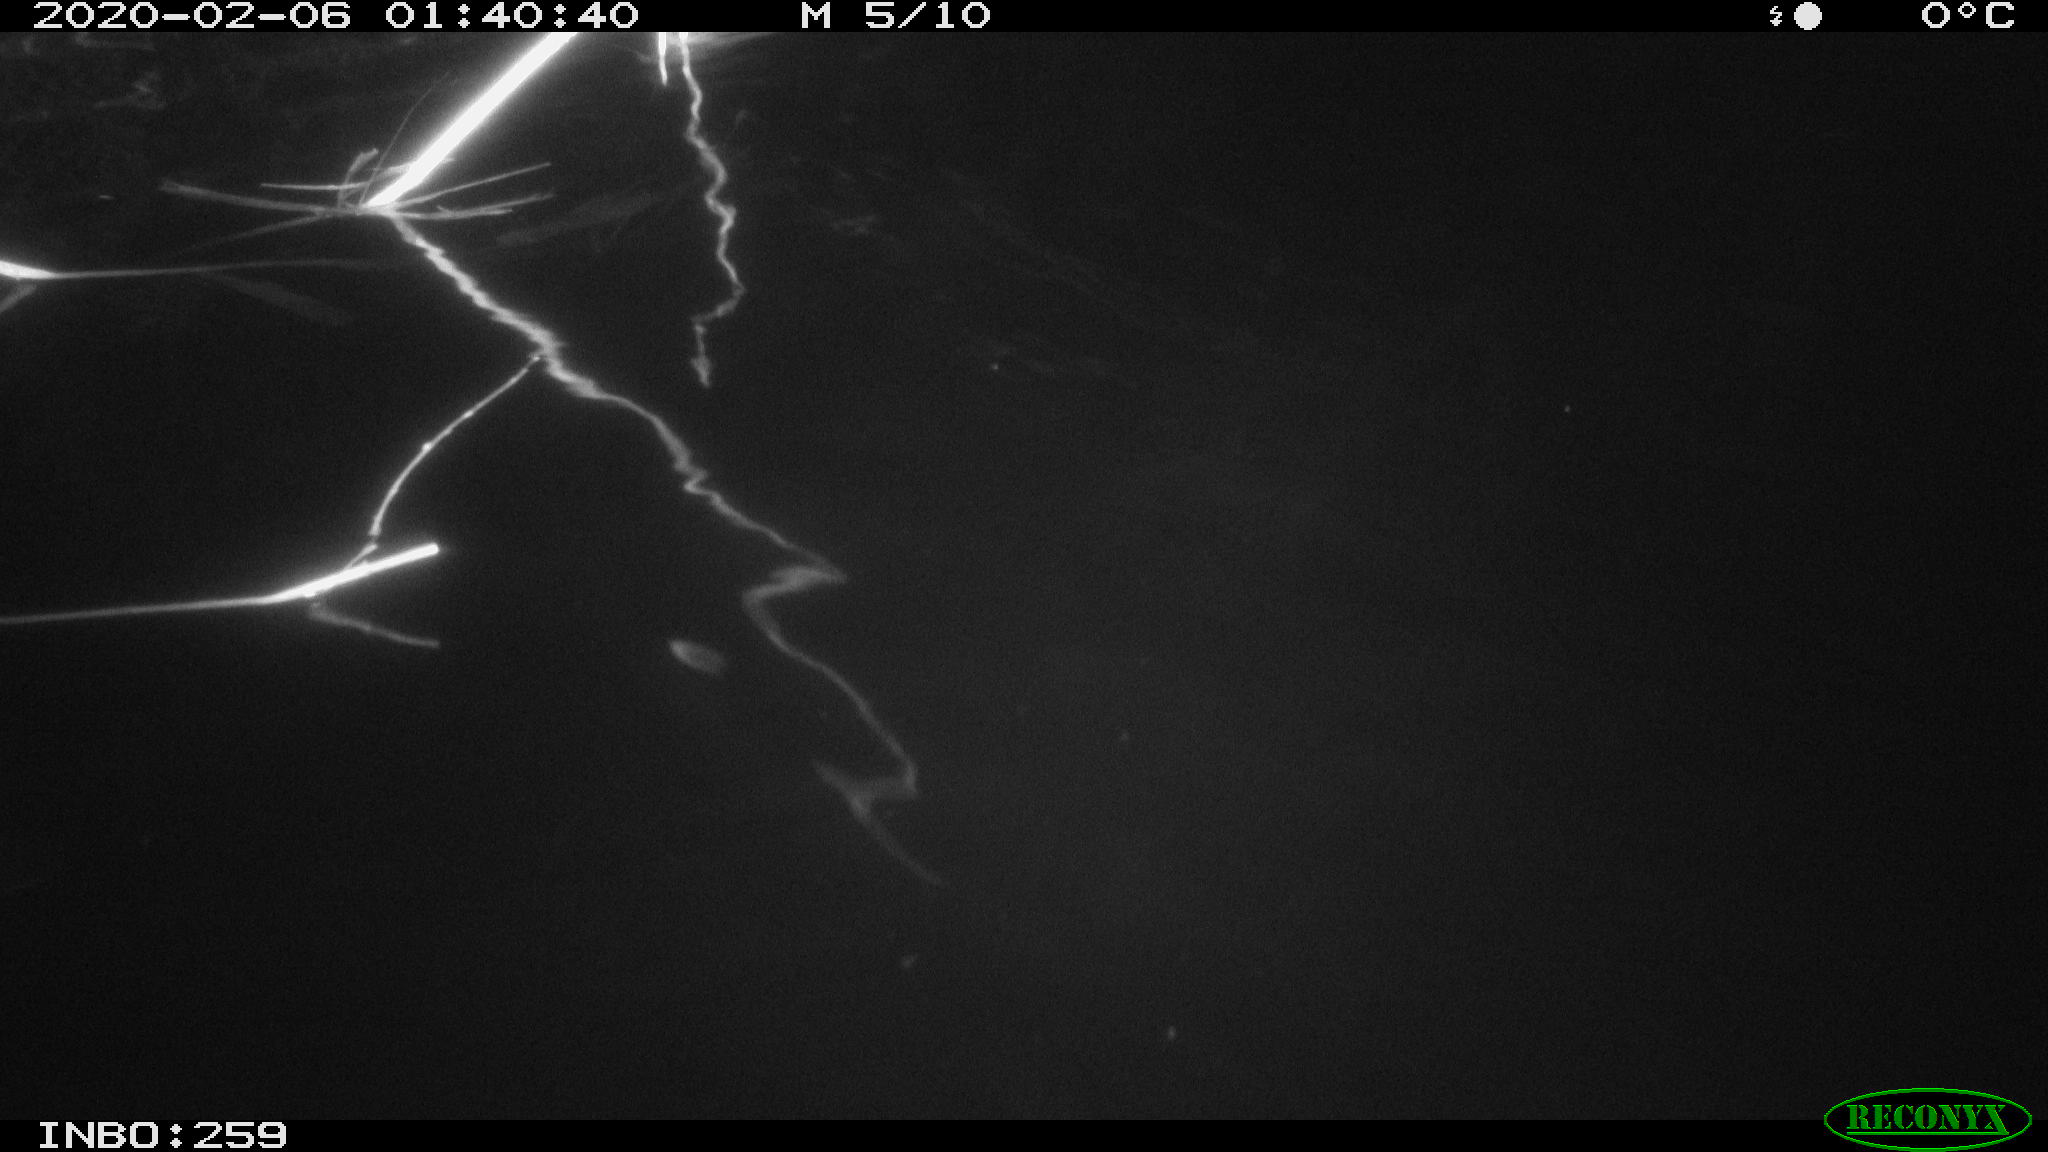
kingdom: Animalia
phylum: Chordata
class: Mammalia
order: Rodentia
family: Cricetidae
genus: Ondatra
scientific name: Ondatra zibethicus
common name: Muskrat
